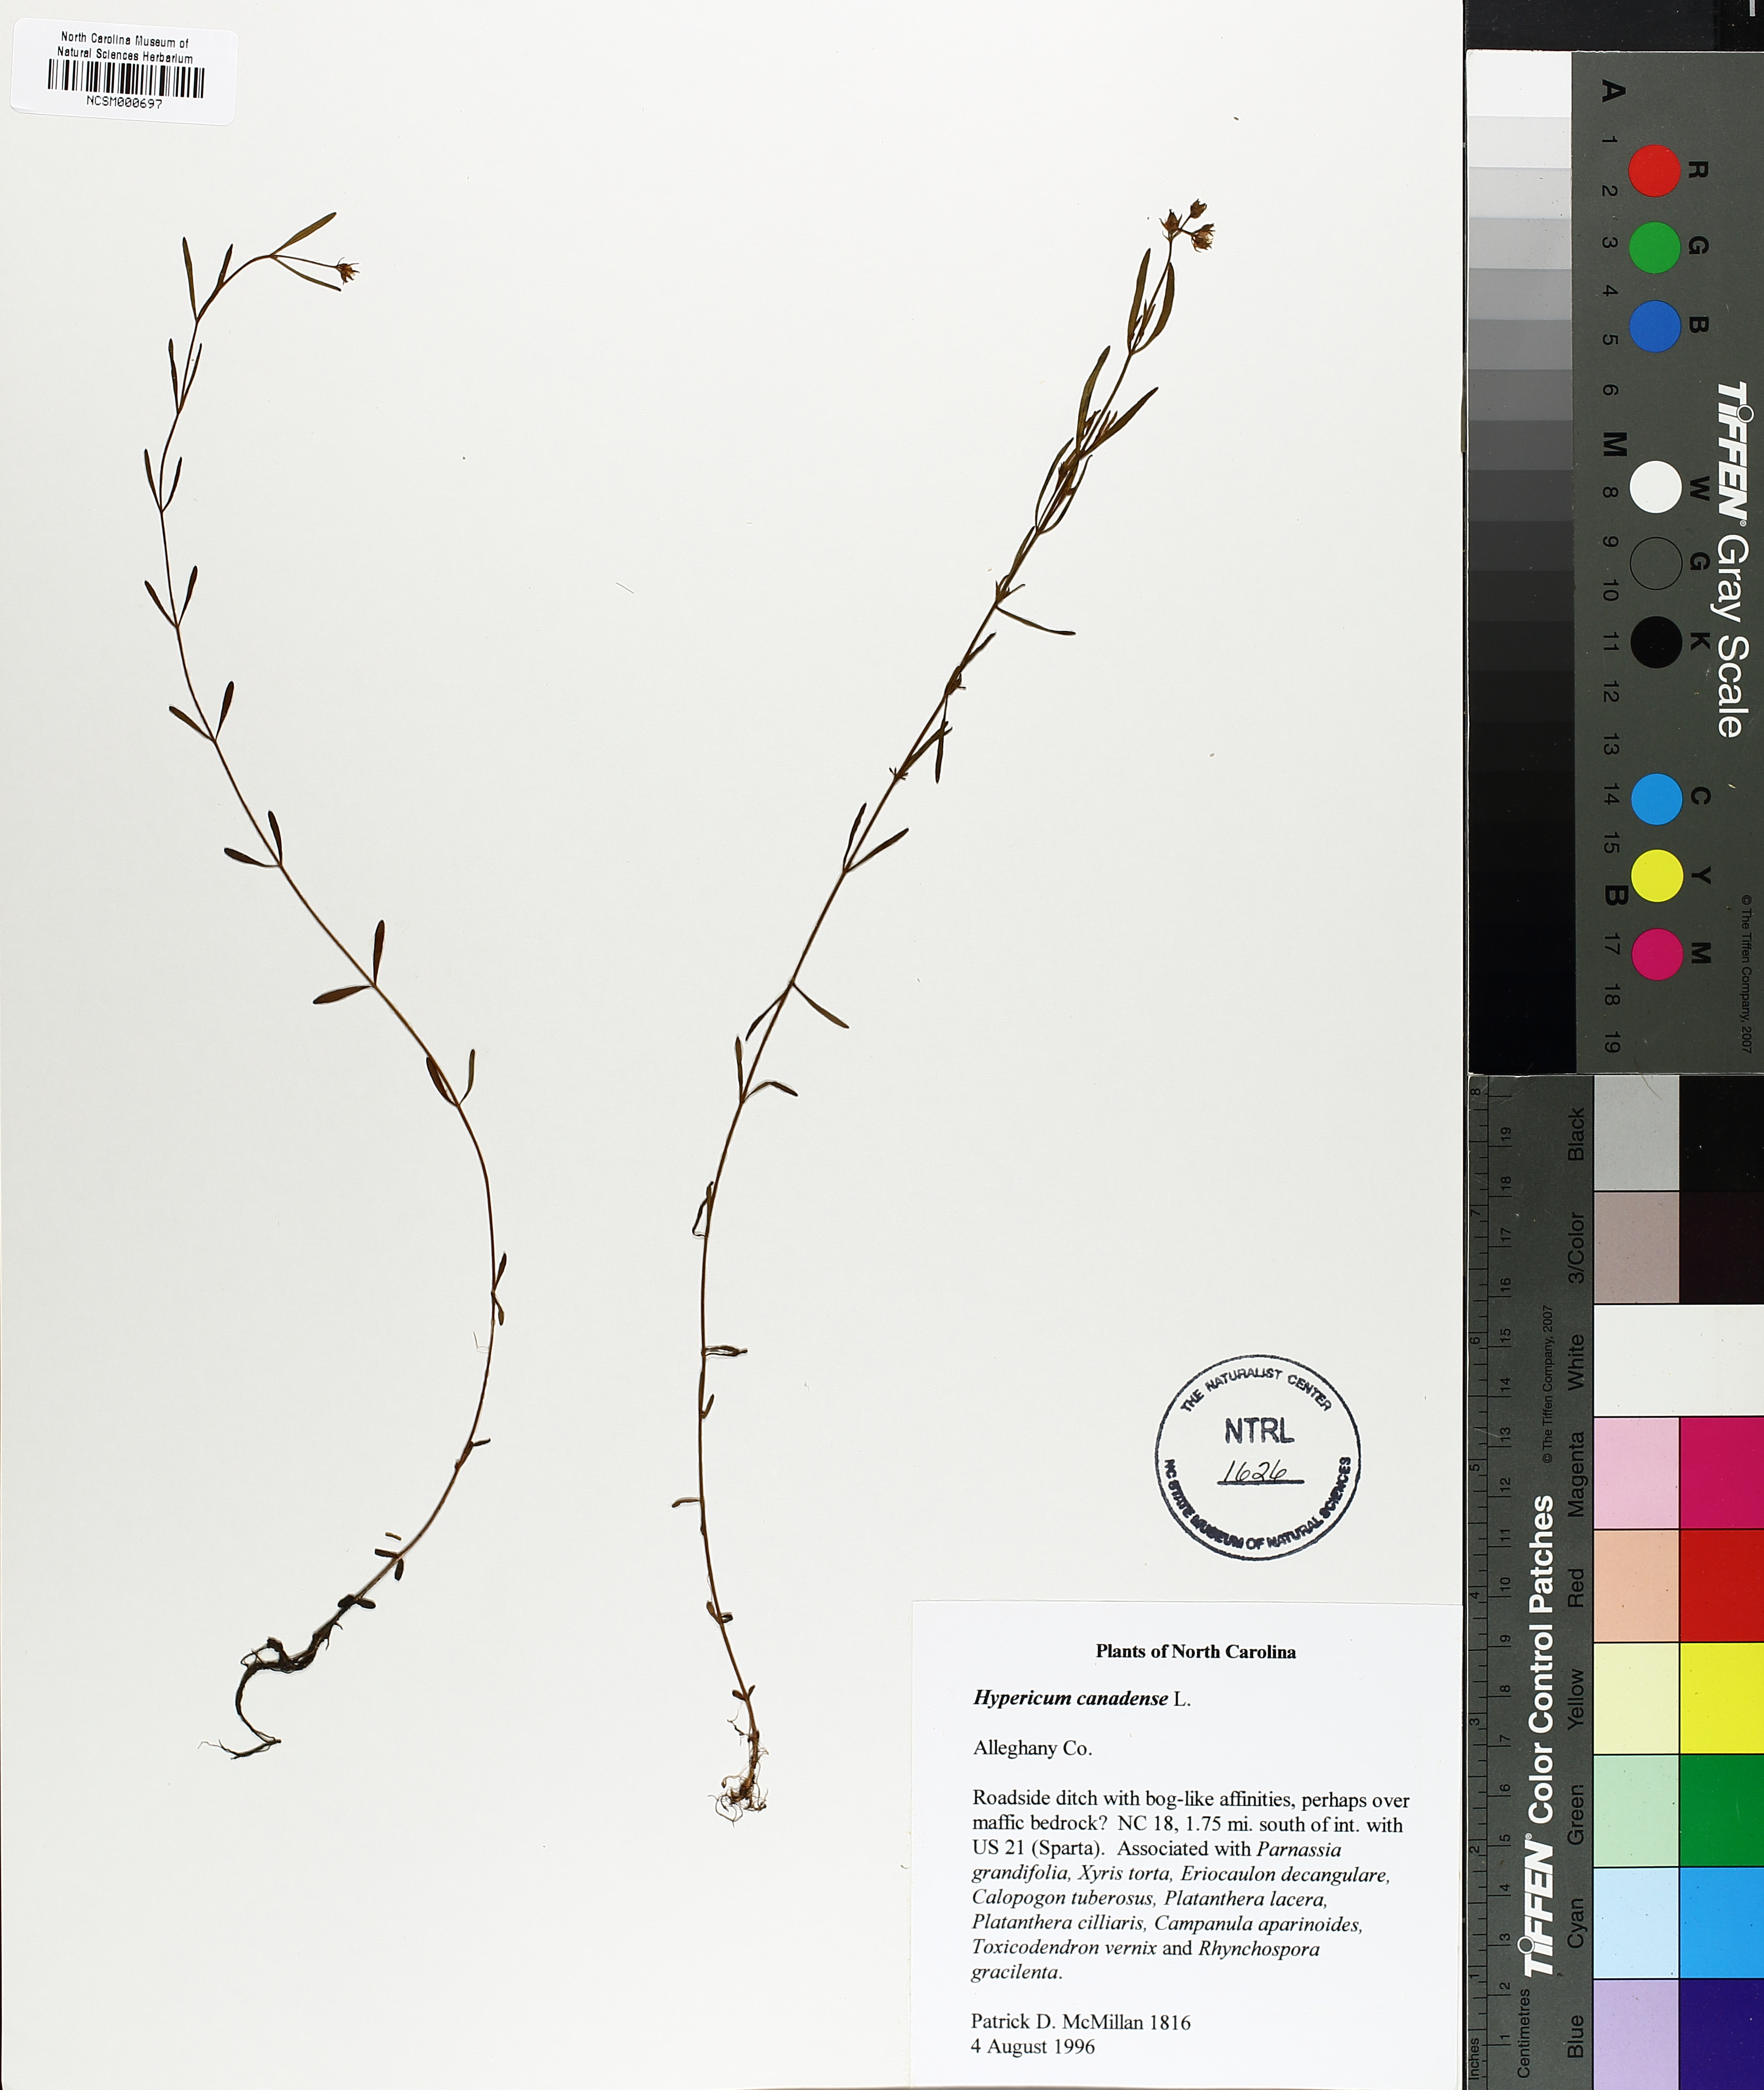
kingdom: Plantae
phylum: Tracheophyta
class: Magnoliopsida
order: Malpighiales
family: Hypericaceae
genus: Hypericum
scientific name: Hypericum canadense
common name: Irish st. john's-wort
